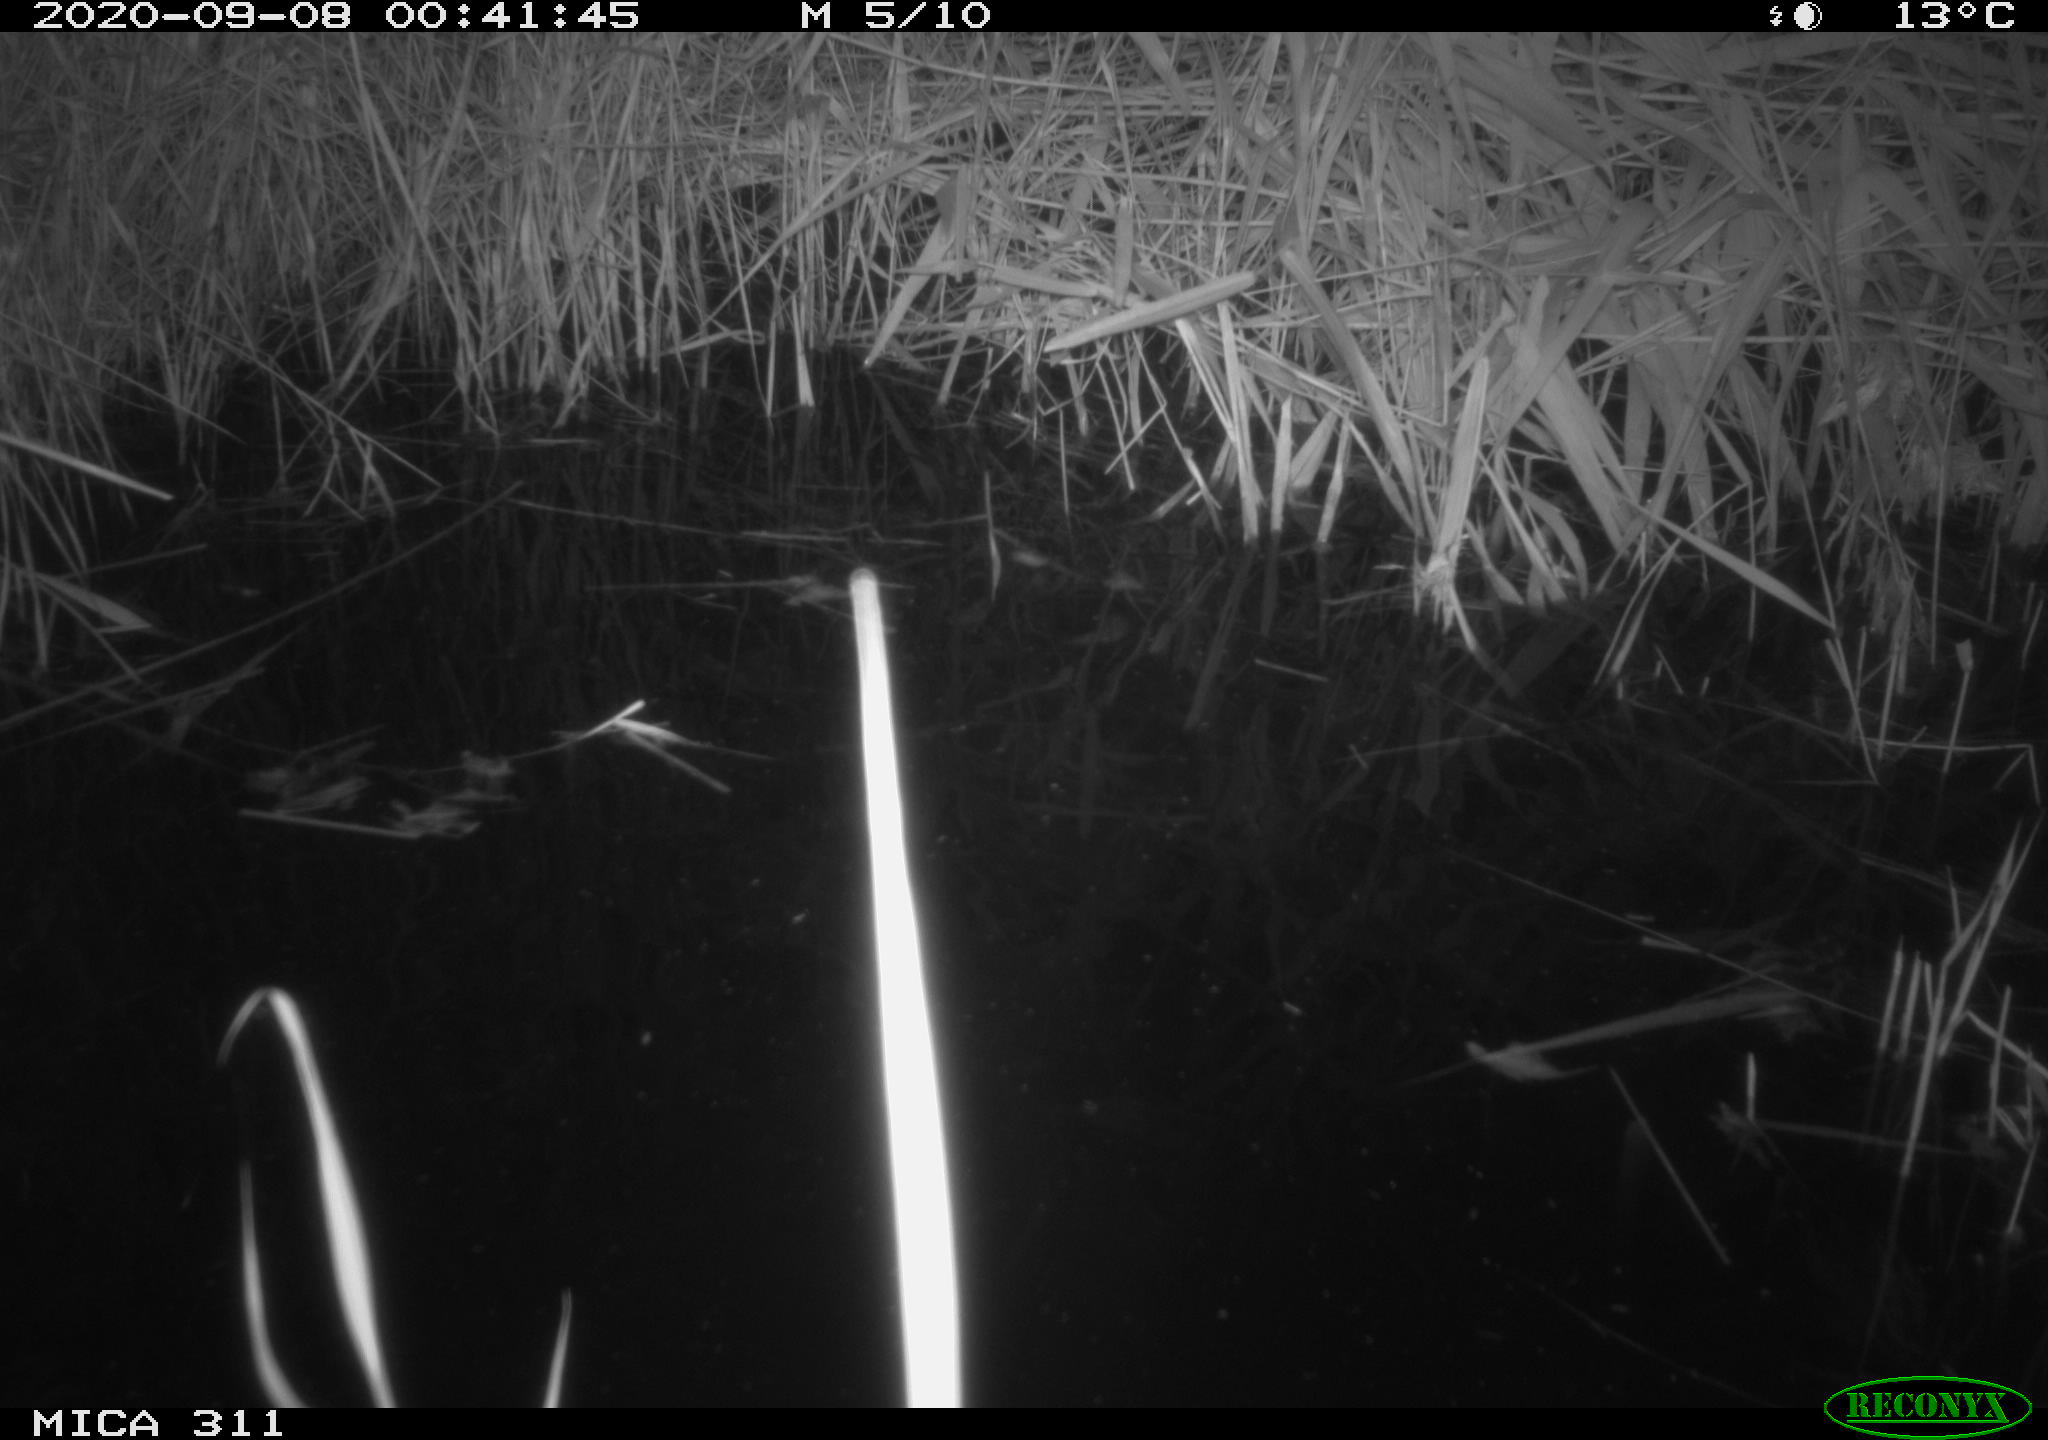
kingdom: Animalia
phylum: Chordata
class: Mammalia
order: Rodentia
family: Cricetidae
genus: Ondatra
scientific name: Ondatra zibethicus
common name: Muskrat
